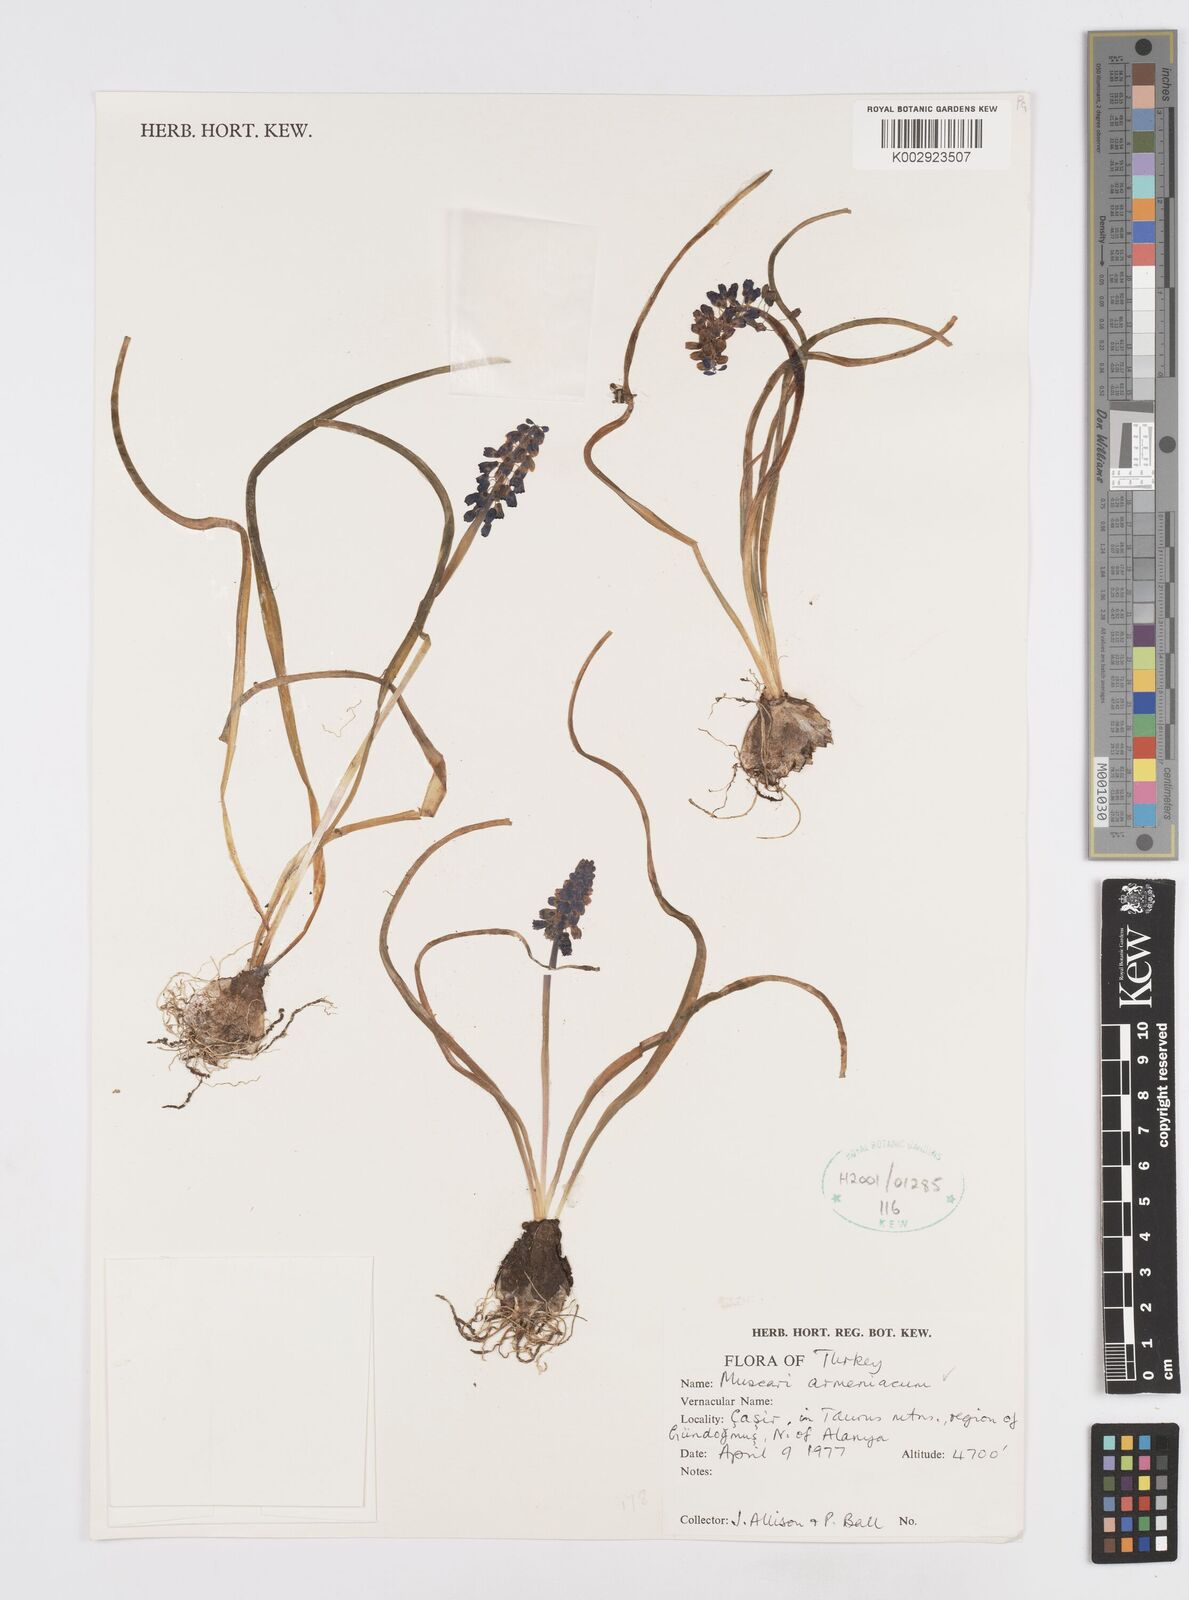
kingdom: Plantae
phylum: Tracheophyta
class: Liliopsida
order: Asparagales
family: Asparagaceae
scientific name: Asparagaceae
